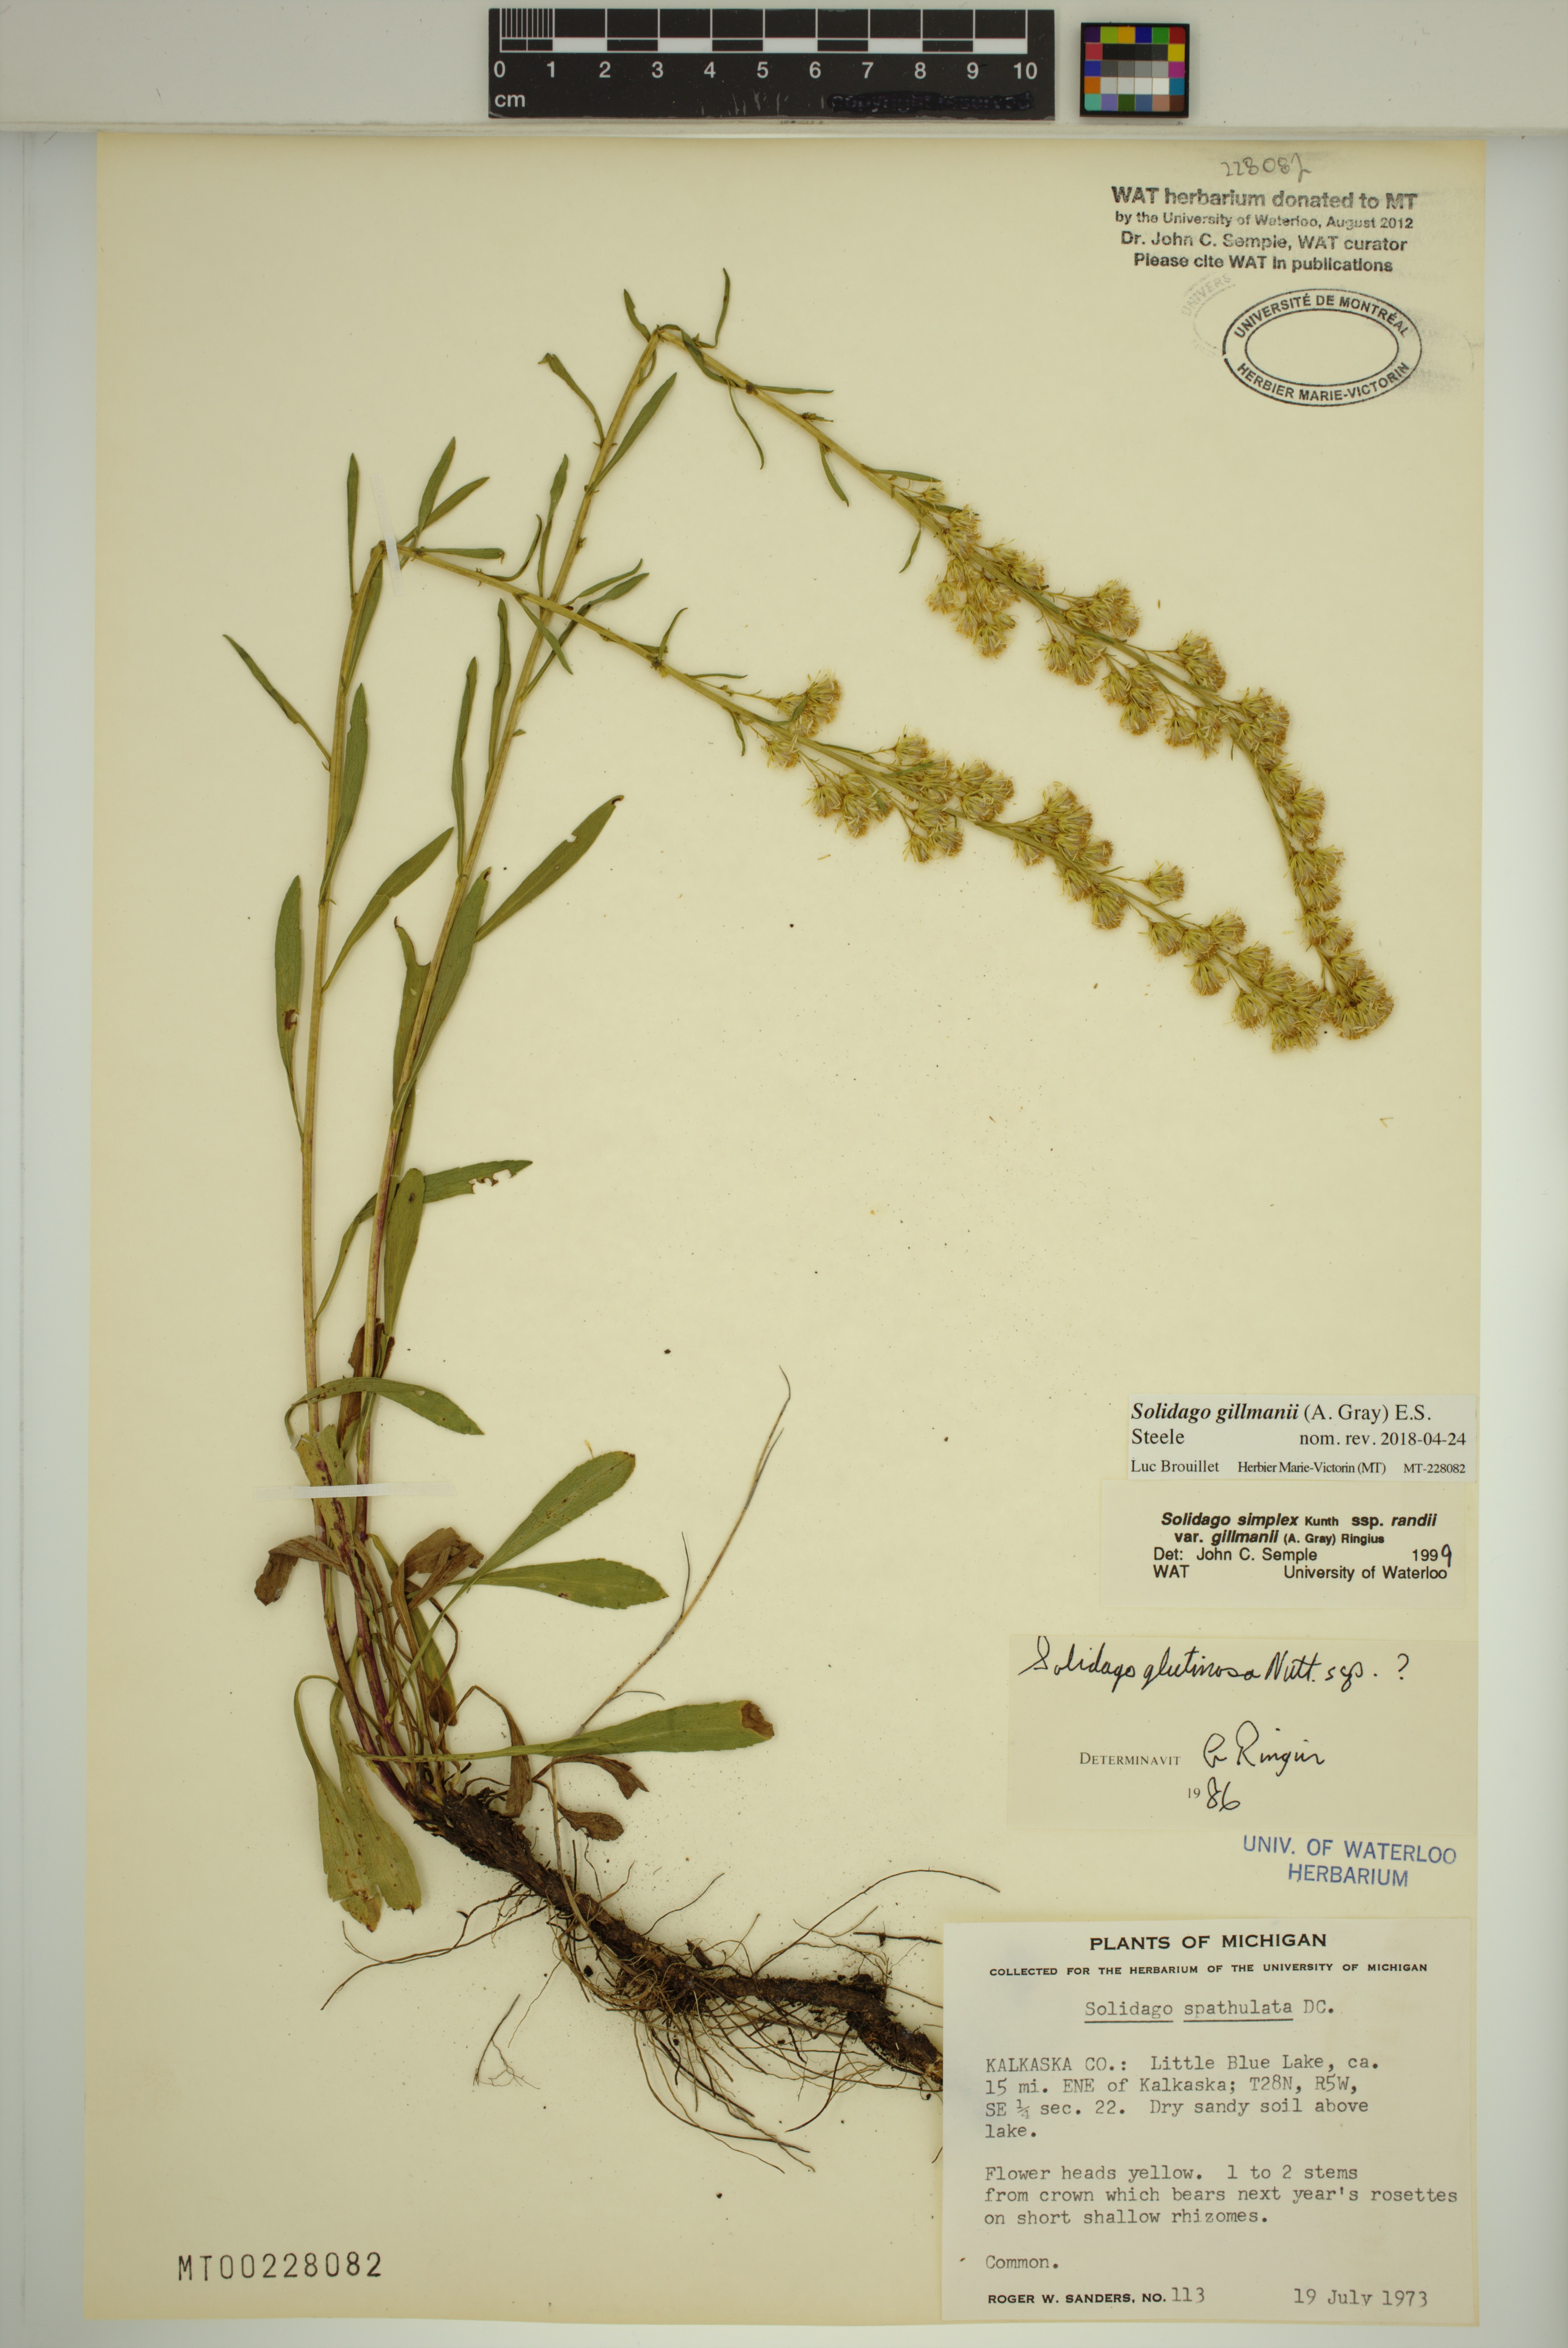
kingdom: Plantae
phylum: Tracheophyta
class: Magnoliopsida
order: Asterales
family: Asteraceae
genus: Solidago
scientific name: Solidago gillmanii
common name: Gillman's goldenrod
